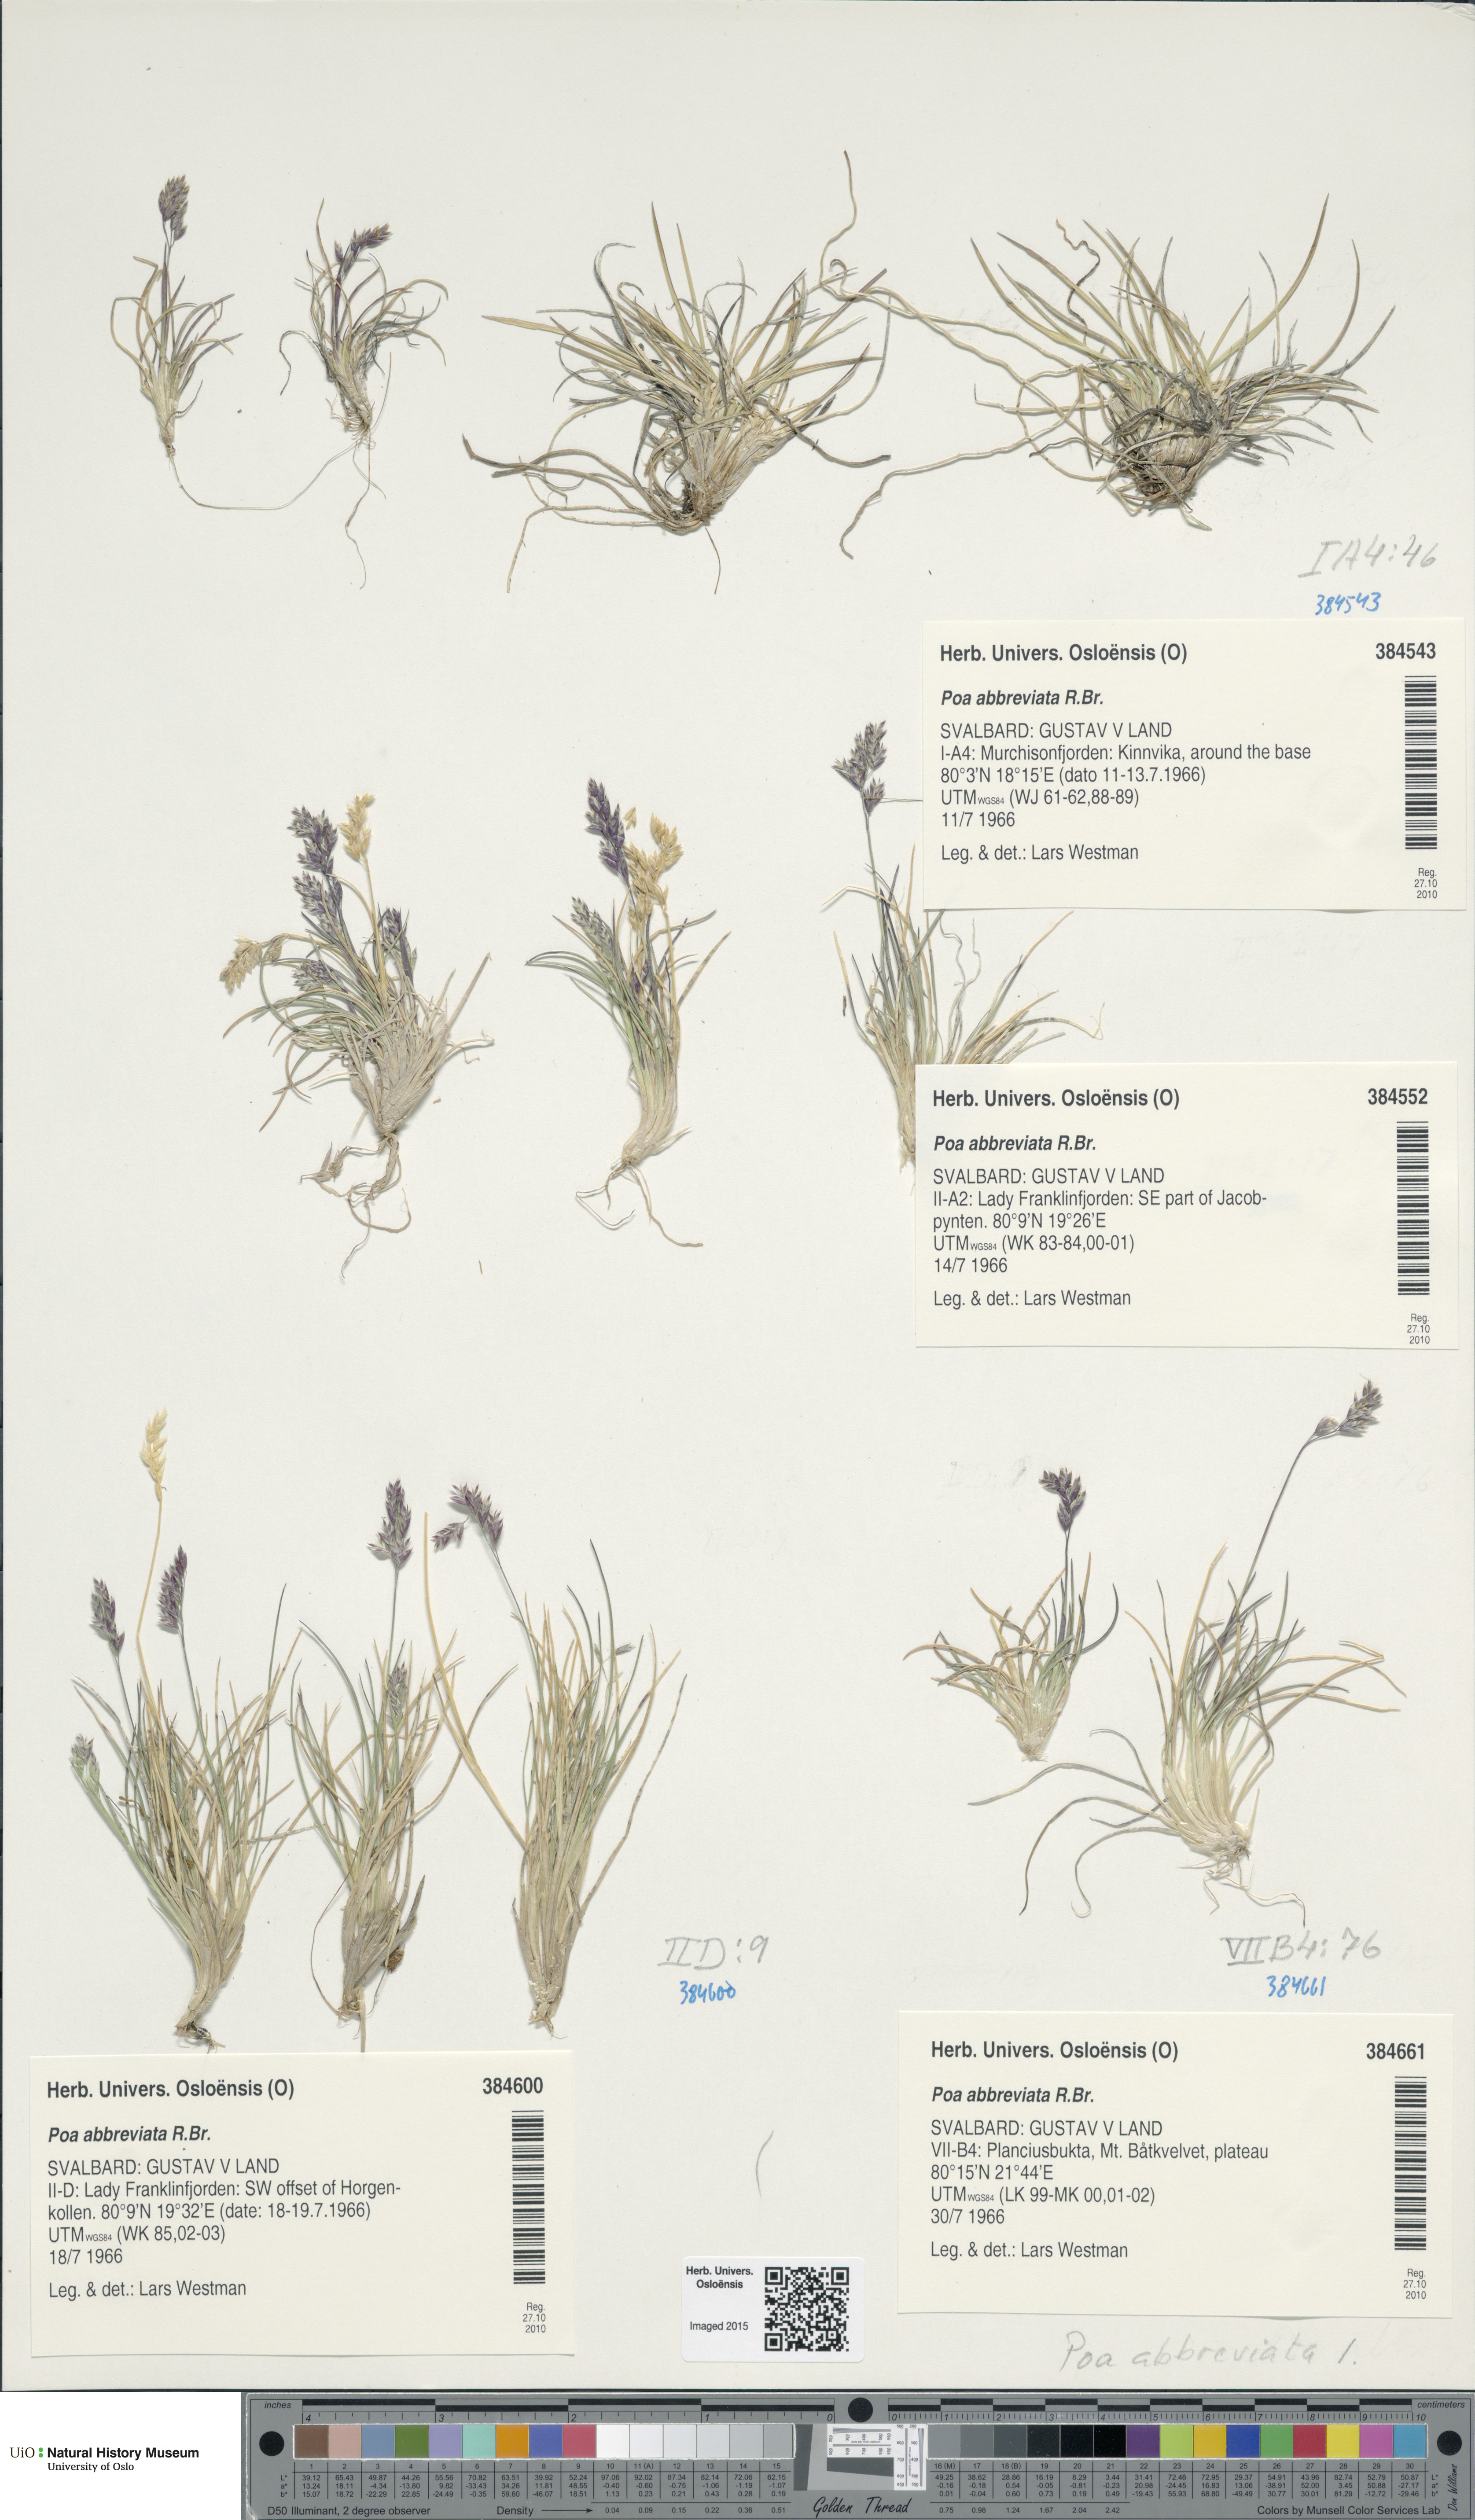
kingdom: Plantae
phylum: Tracheophyta
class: Liliopsida
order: Poales
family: Poaceae
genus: Poa
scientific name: Poa abbreviata
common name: Abbreviated bluegrass
